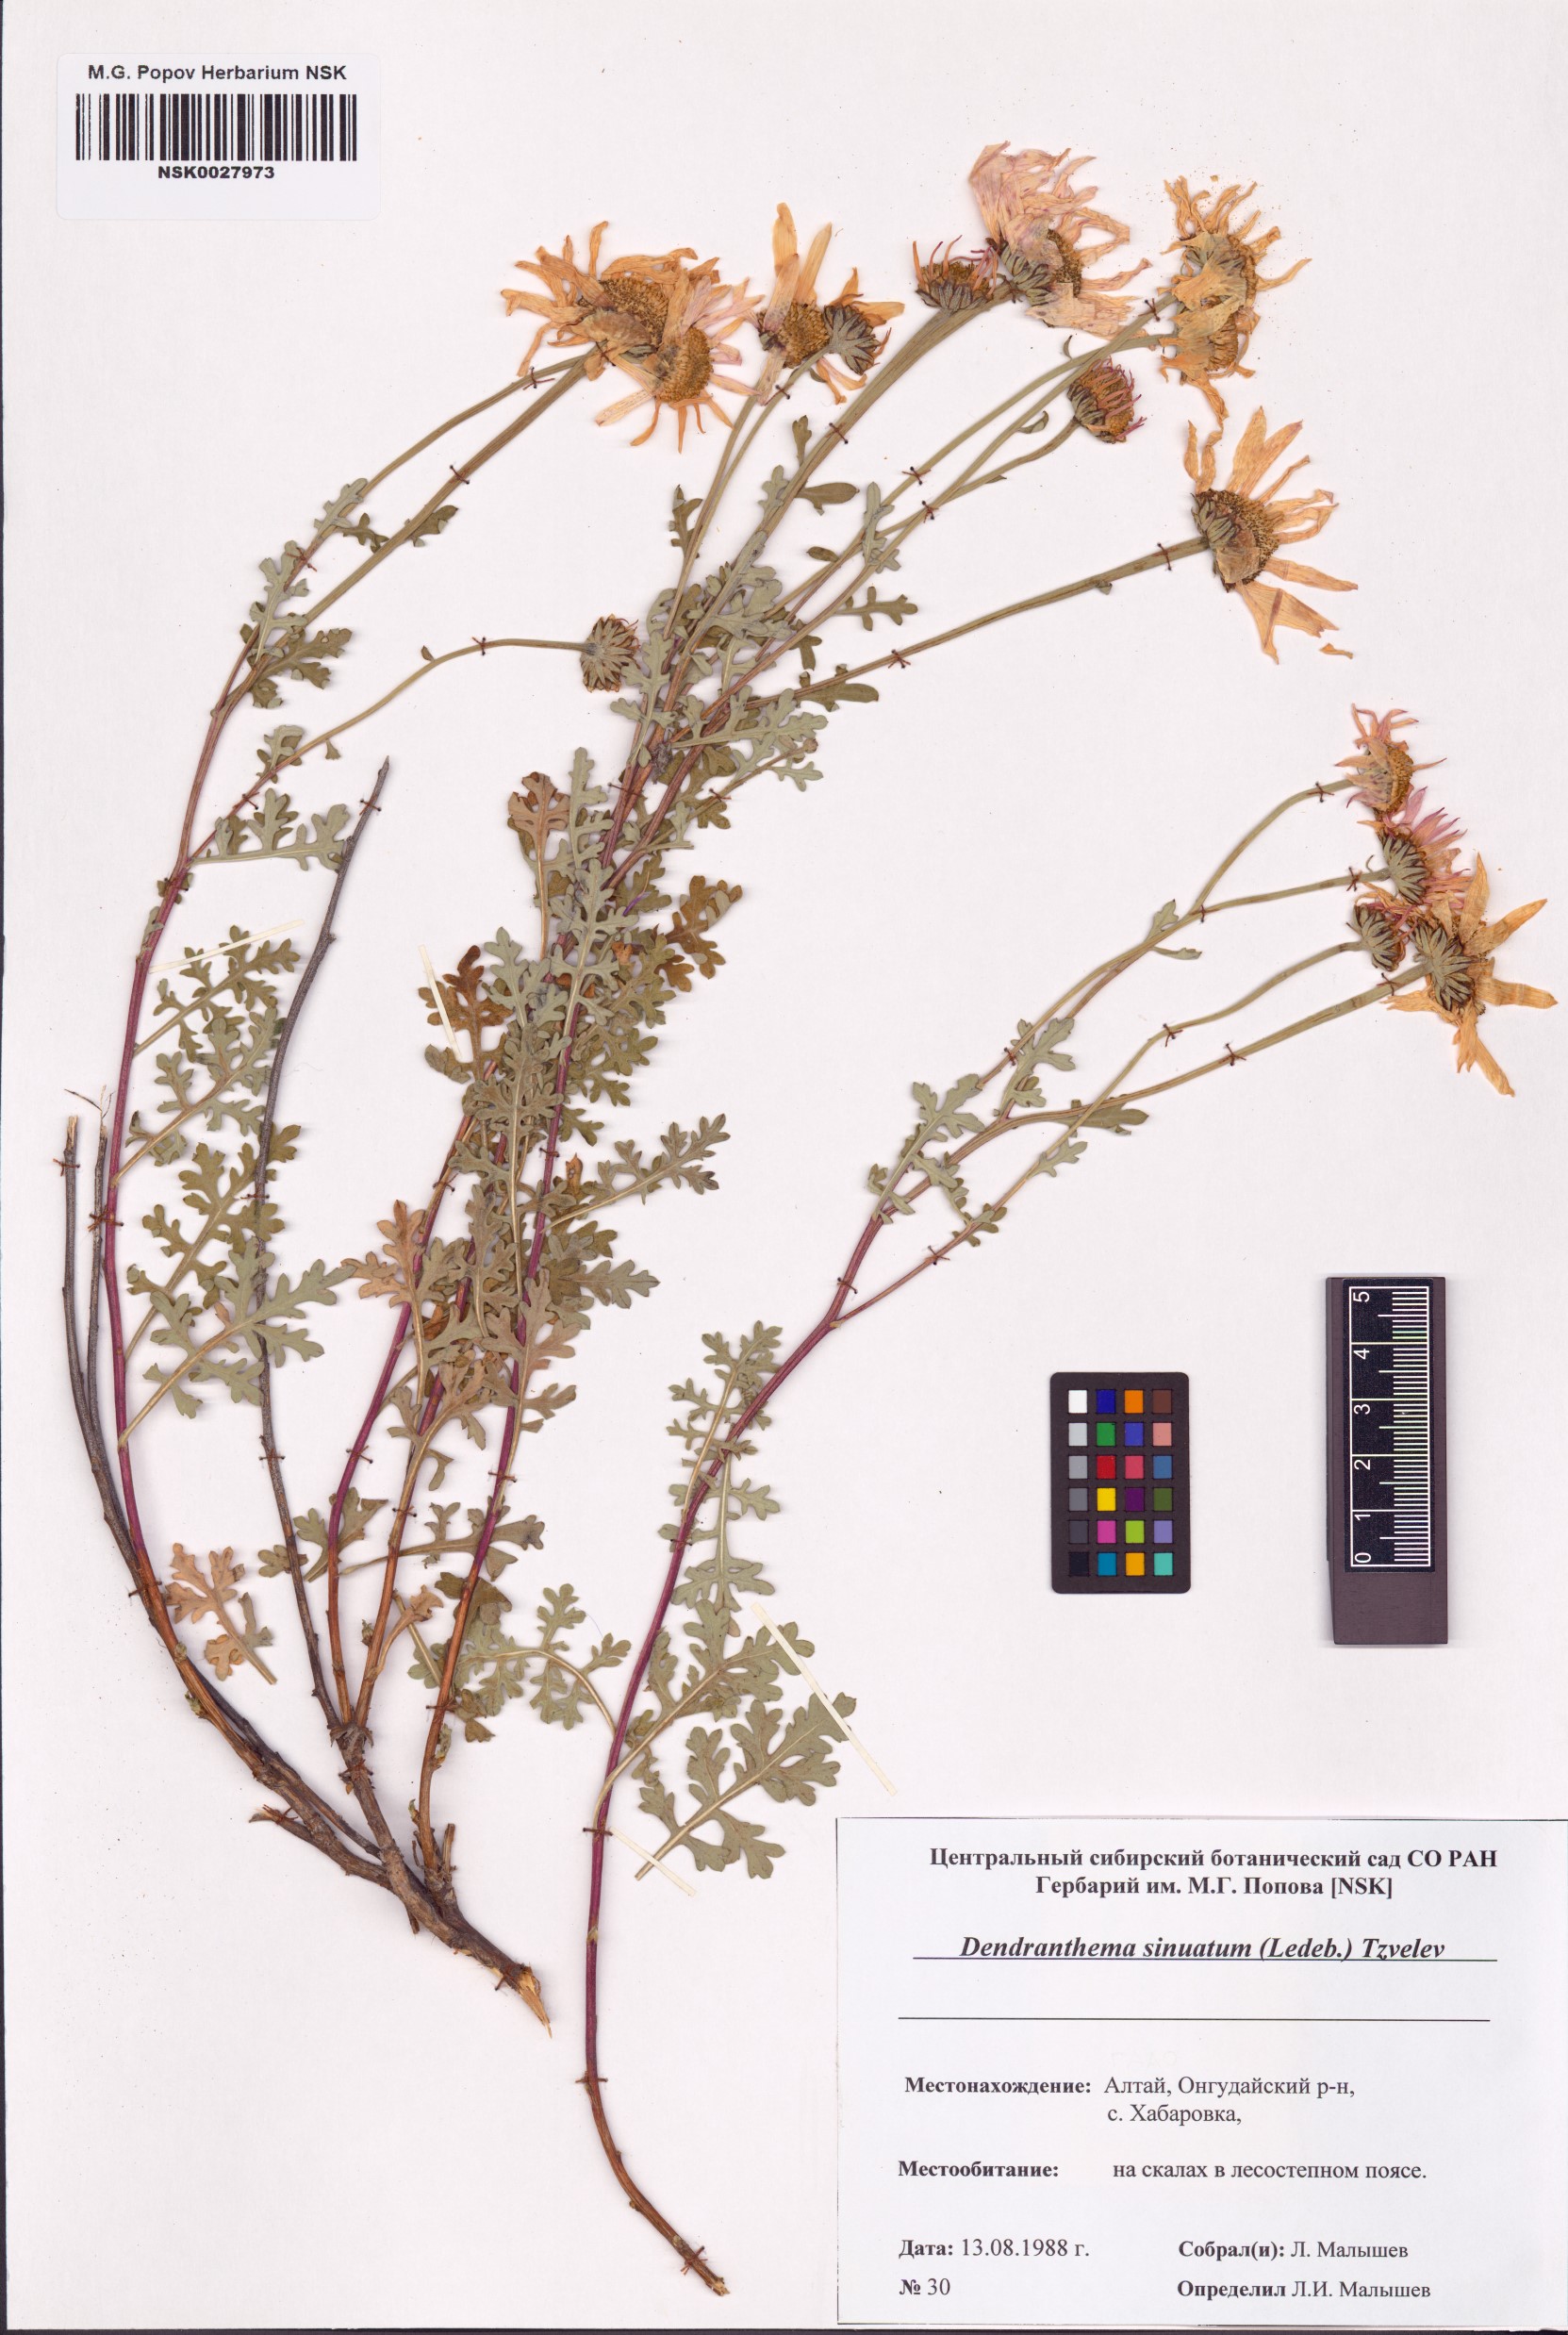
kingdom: Plantae
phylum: Tracheophyta
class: Magnoliopsida
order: Asterales
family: Asteraceae
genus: Chrysanthemum
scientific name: Chrysanthemum sinuatum
